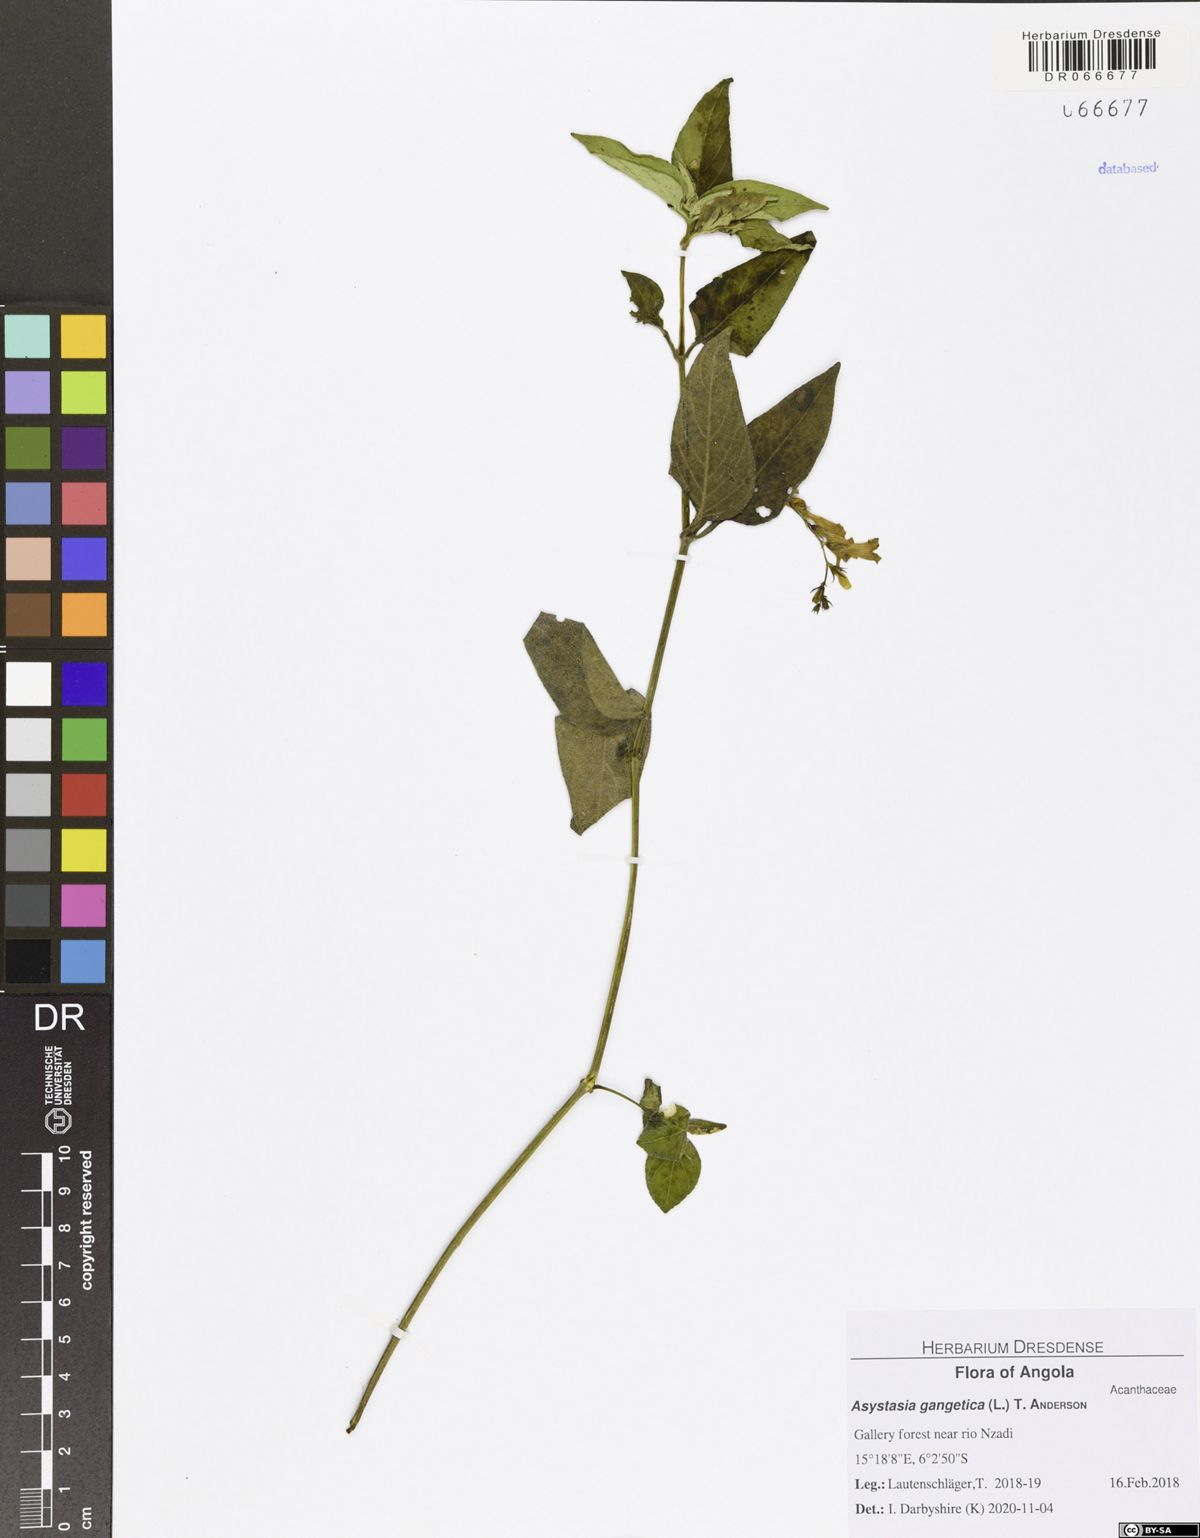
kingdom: Plantae
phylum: Tracheophyta
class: Magnoliopsida
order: Lamiales
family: Acanthaceae
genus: Asystasia
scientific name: Asystasia gangetica
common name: Chinese violet
